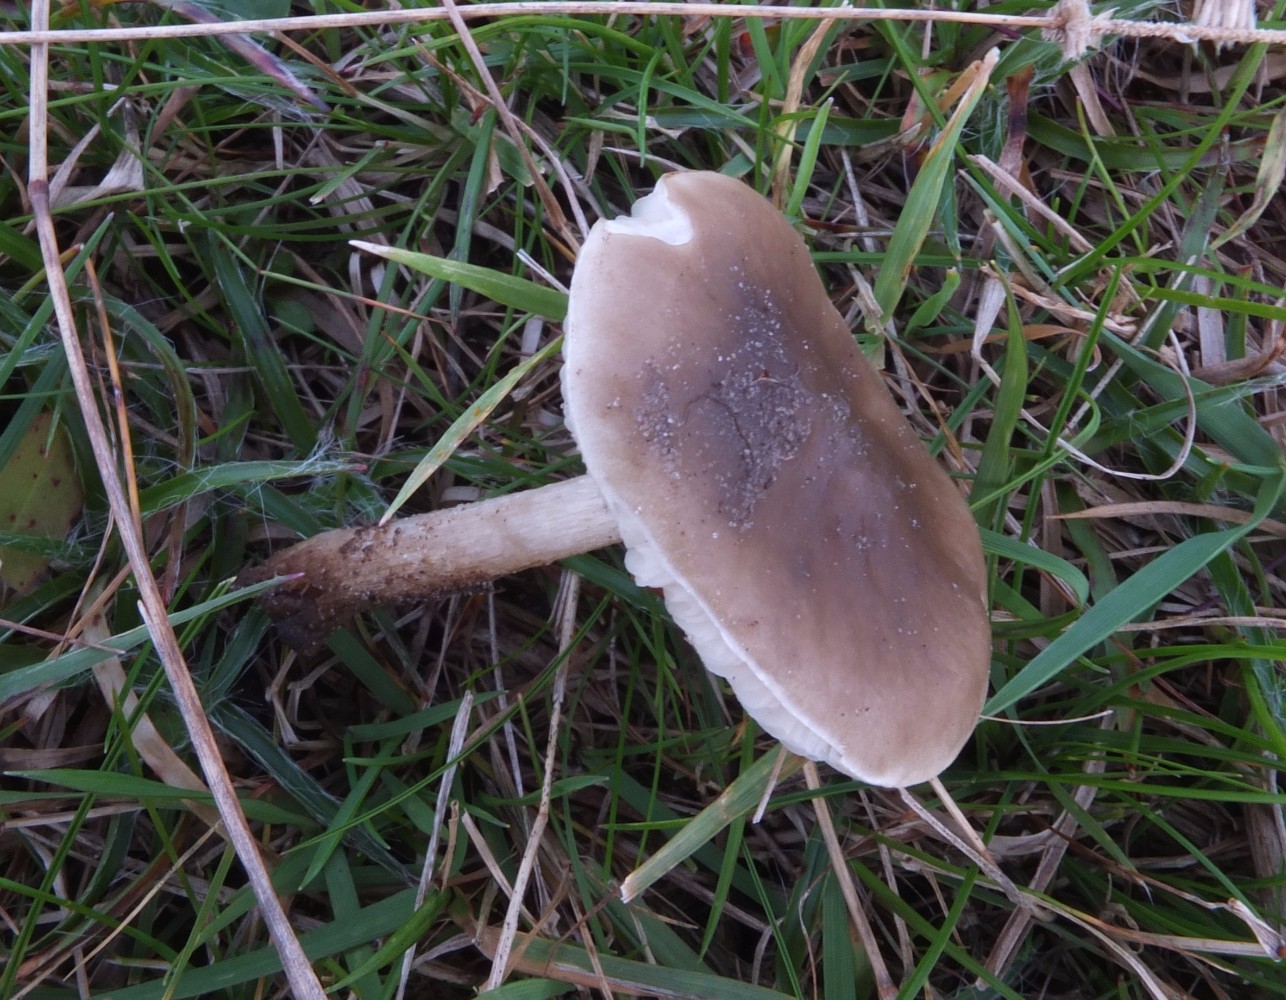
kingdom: Fungi
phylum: Basidiomycota
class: Agaricomycetes
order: Agaricales
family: Tricholomataceae
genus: Melanoleuca
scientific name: Melanoleuca polioleuca
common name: hvidbladet munkehat
